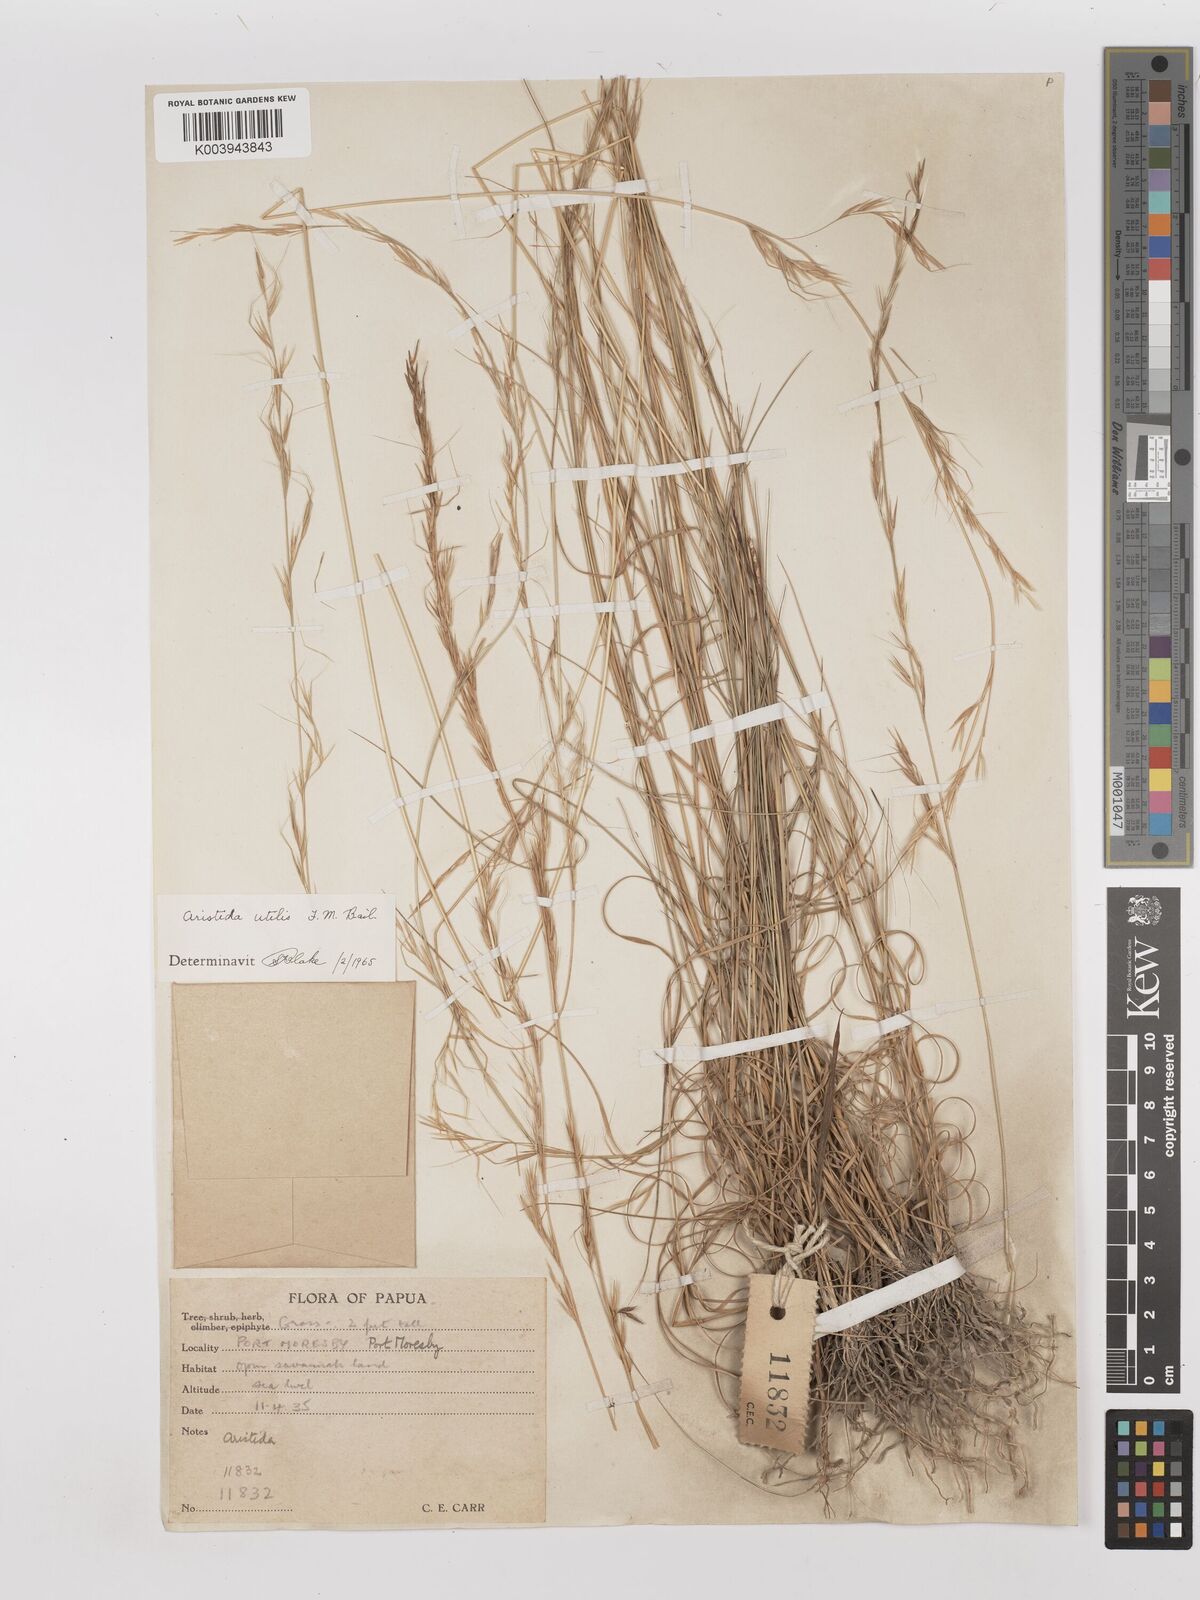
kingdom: Plantae
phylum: Tracheophyta
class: Liliopsida
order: Poales
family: Poaceae
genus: Aristida
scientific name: Aristida utilis
